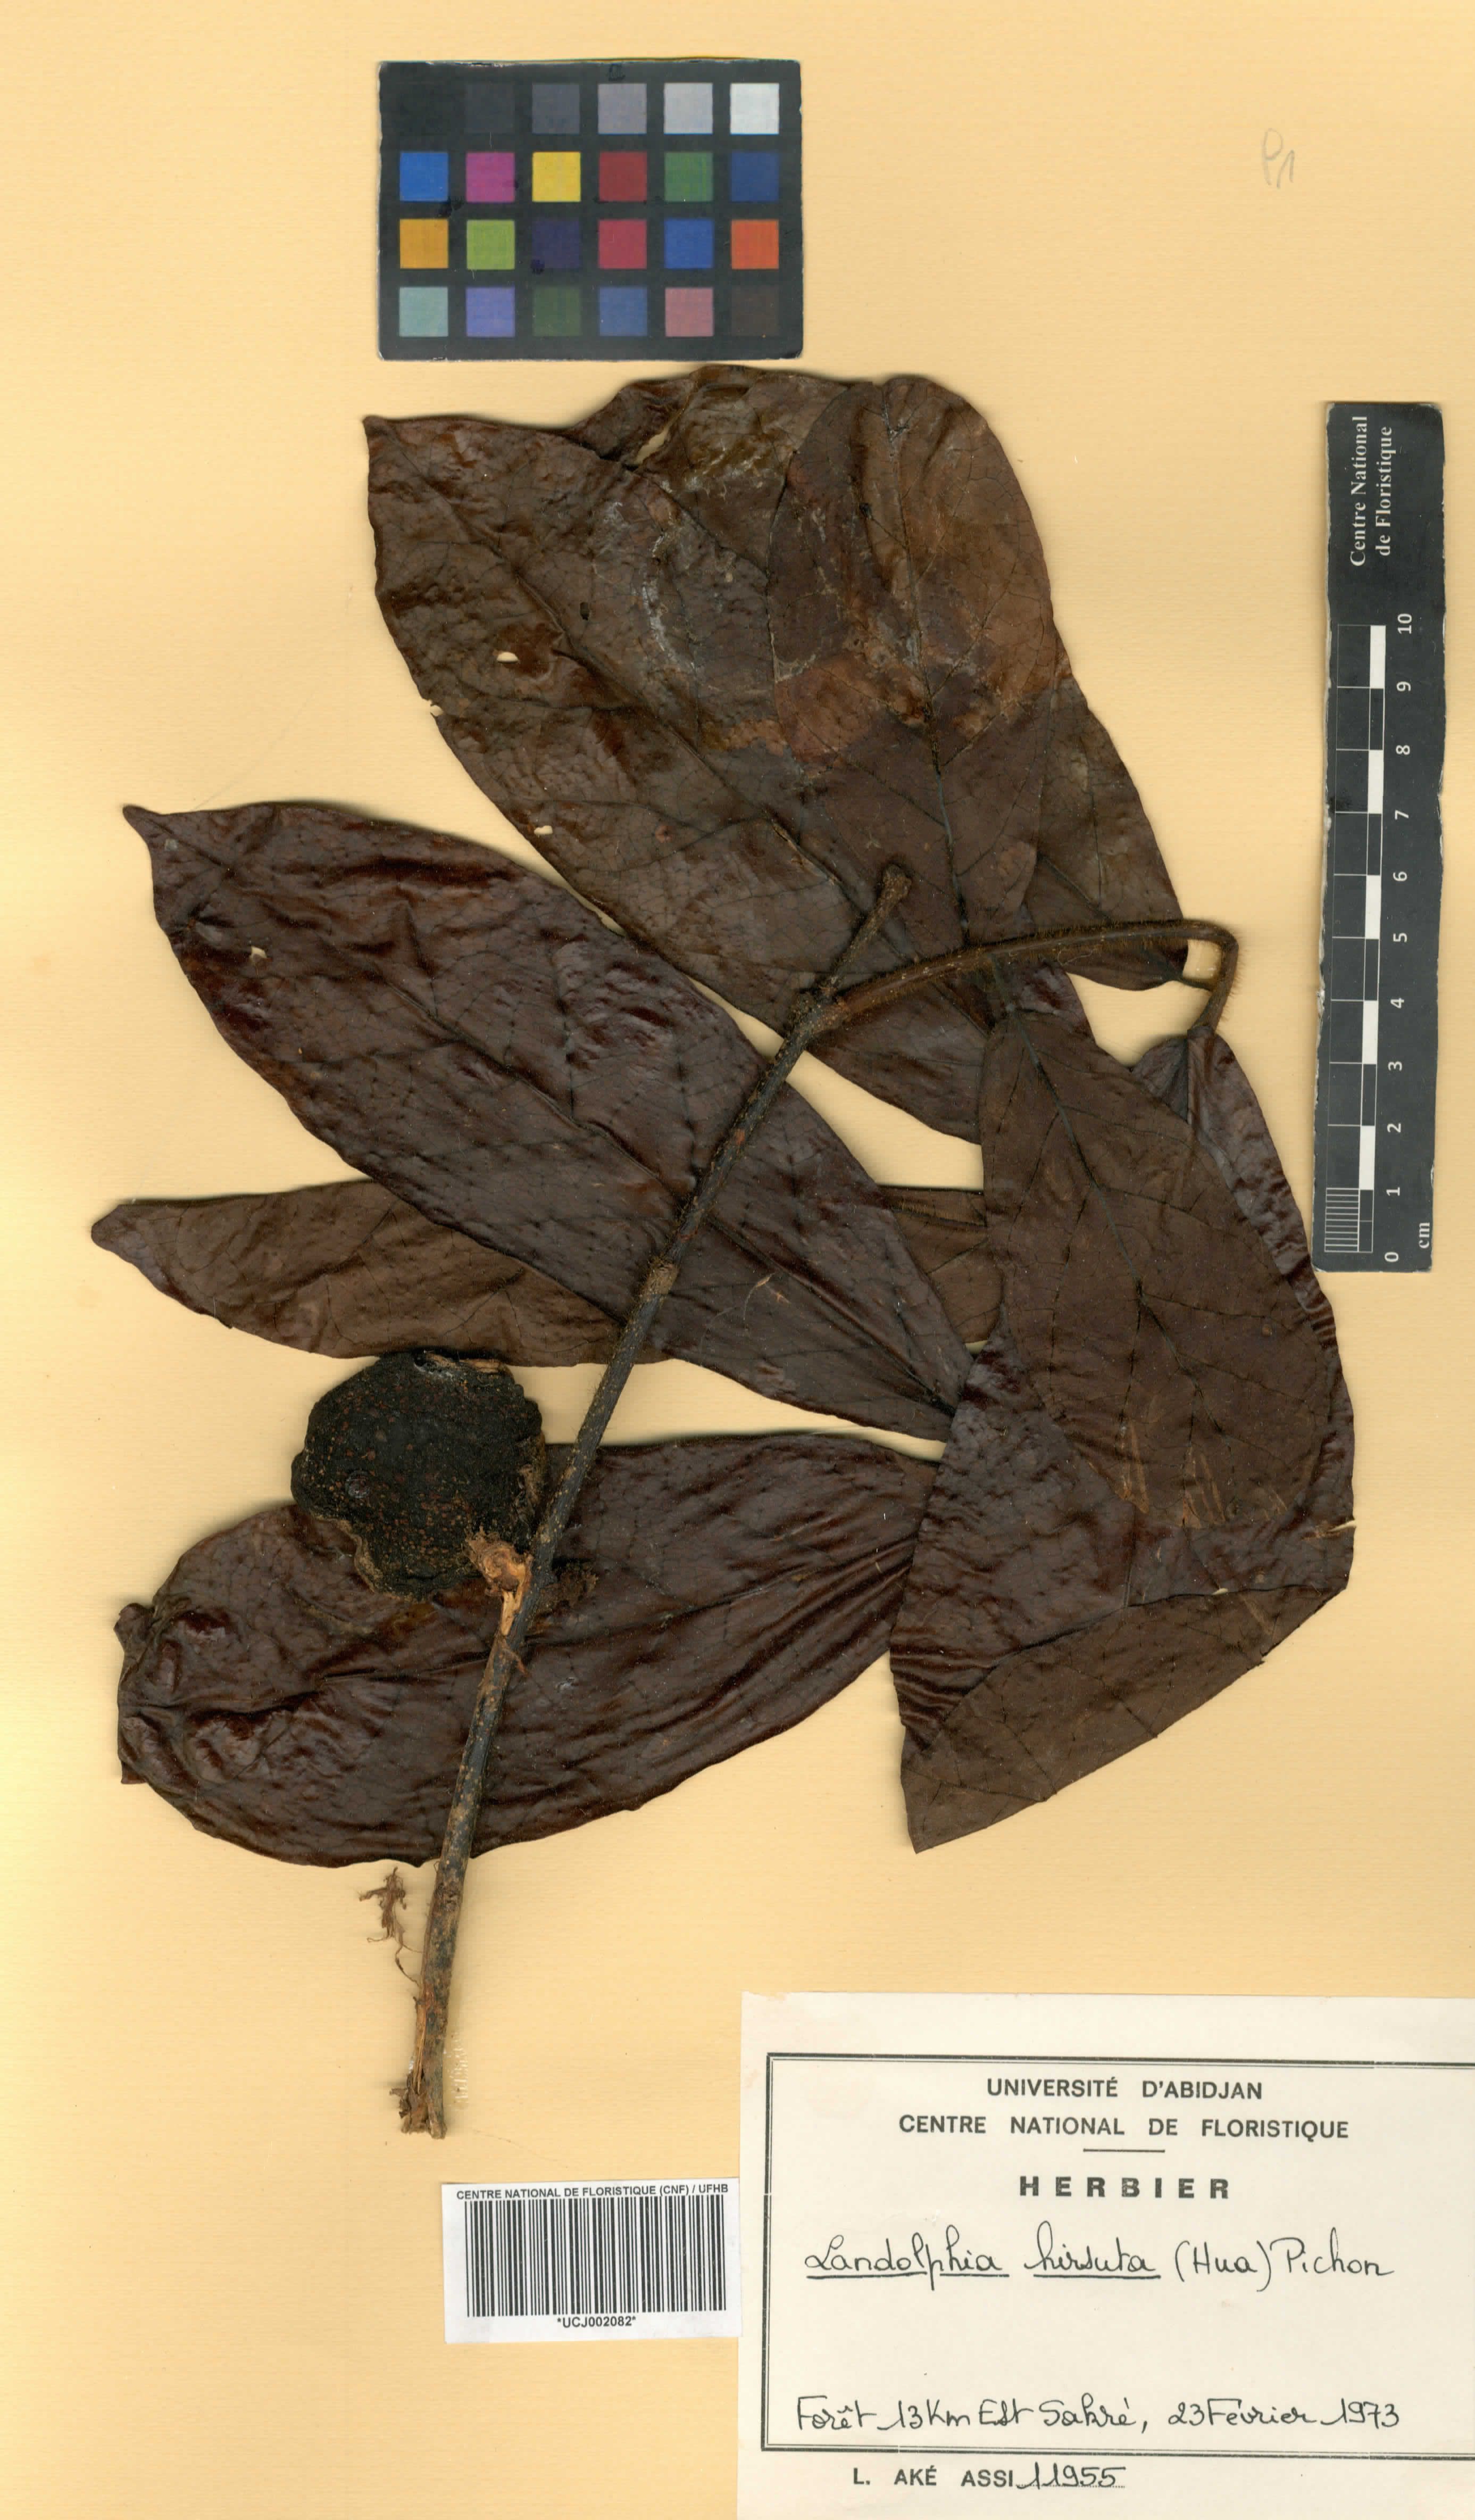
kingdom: Plantae
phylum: Tracheophyta
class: Magnoliopsida
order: Gentianales
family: Apocynaceae
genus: Landolphia
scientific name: Landolphia hirsuta
